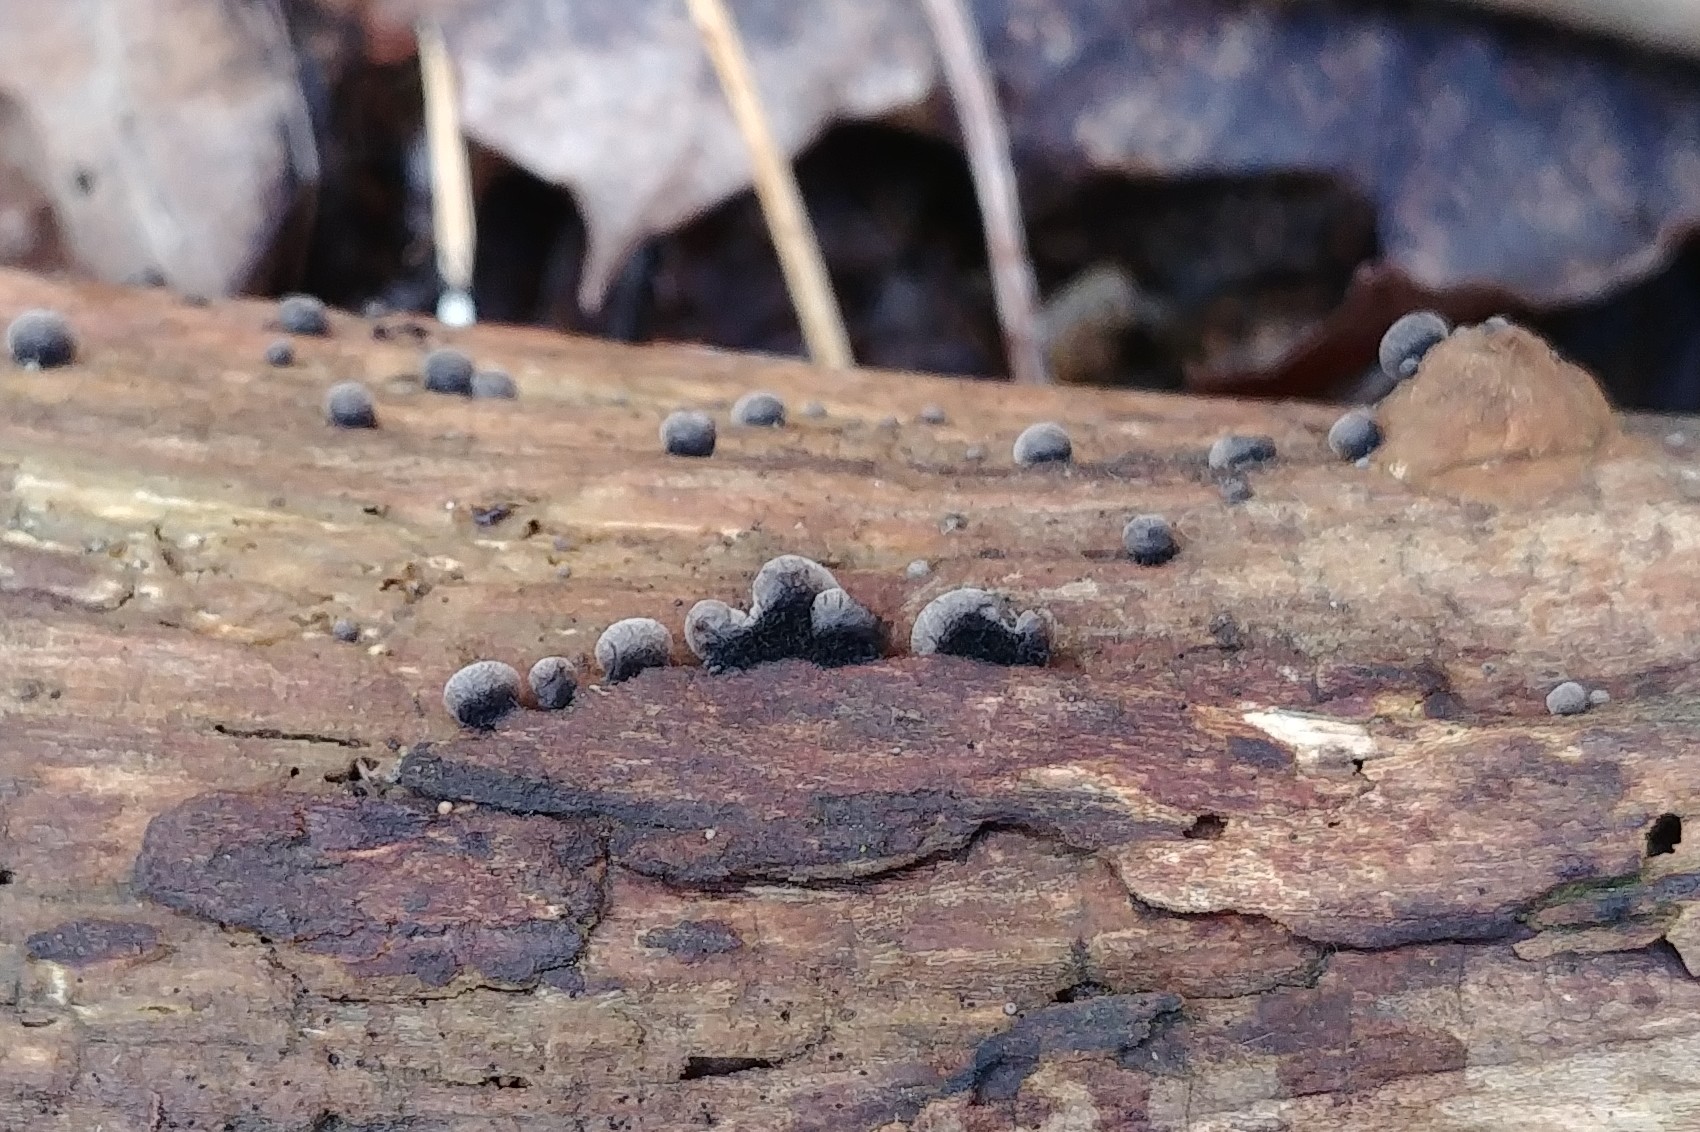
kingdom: Fungi
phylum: Basidiomycota
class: Agaricomycetes
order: Agaricales
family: Pleurotaceae
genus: Resupinatus
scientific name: Resupinatus trichotis
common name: mørkfiltet barkhat
